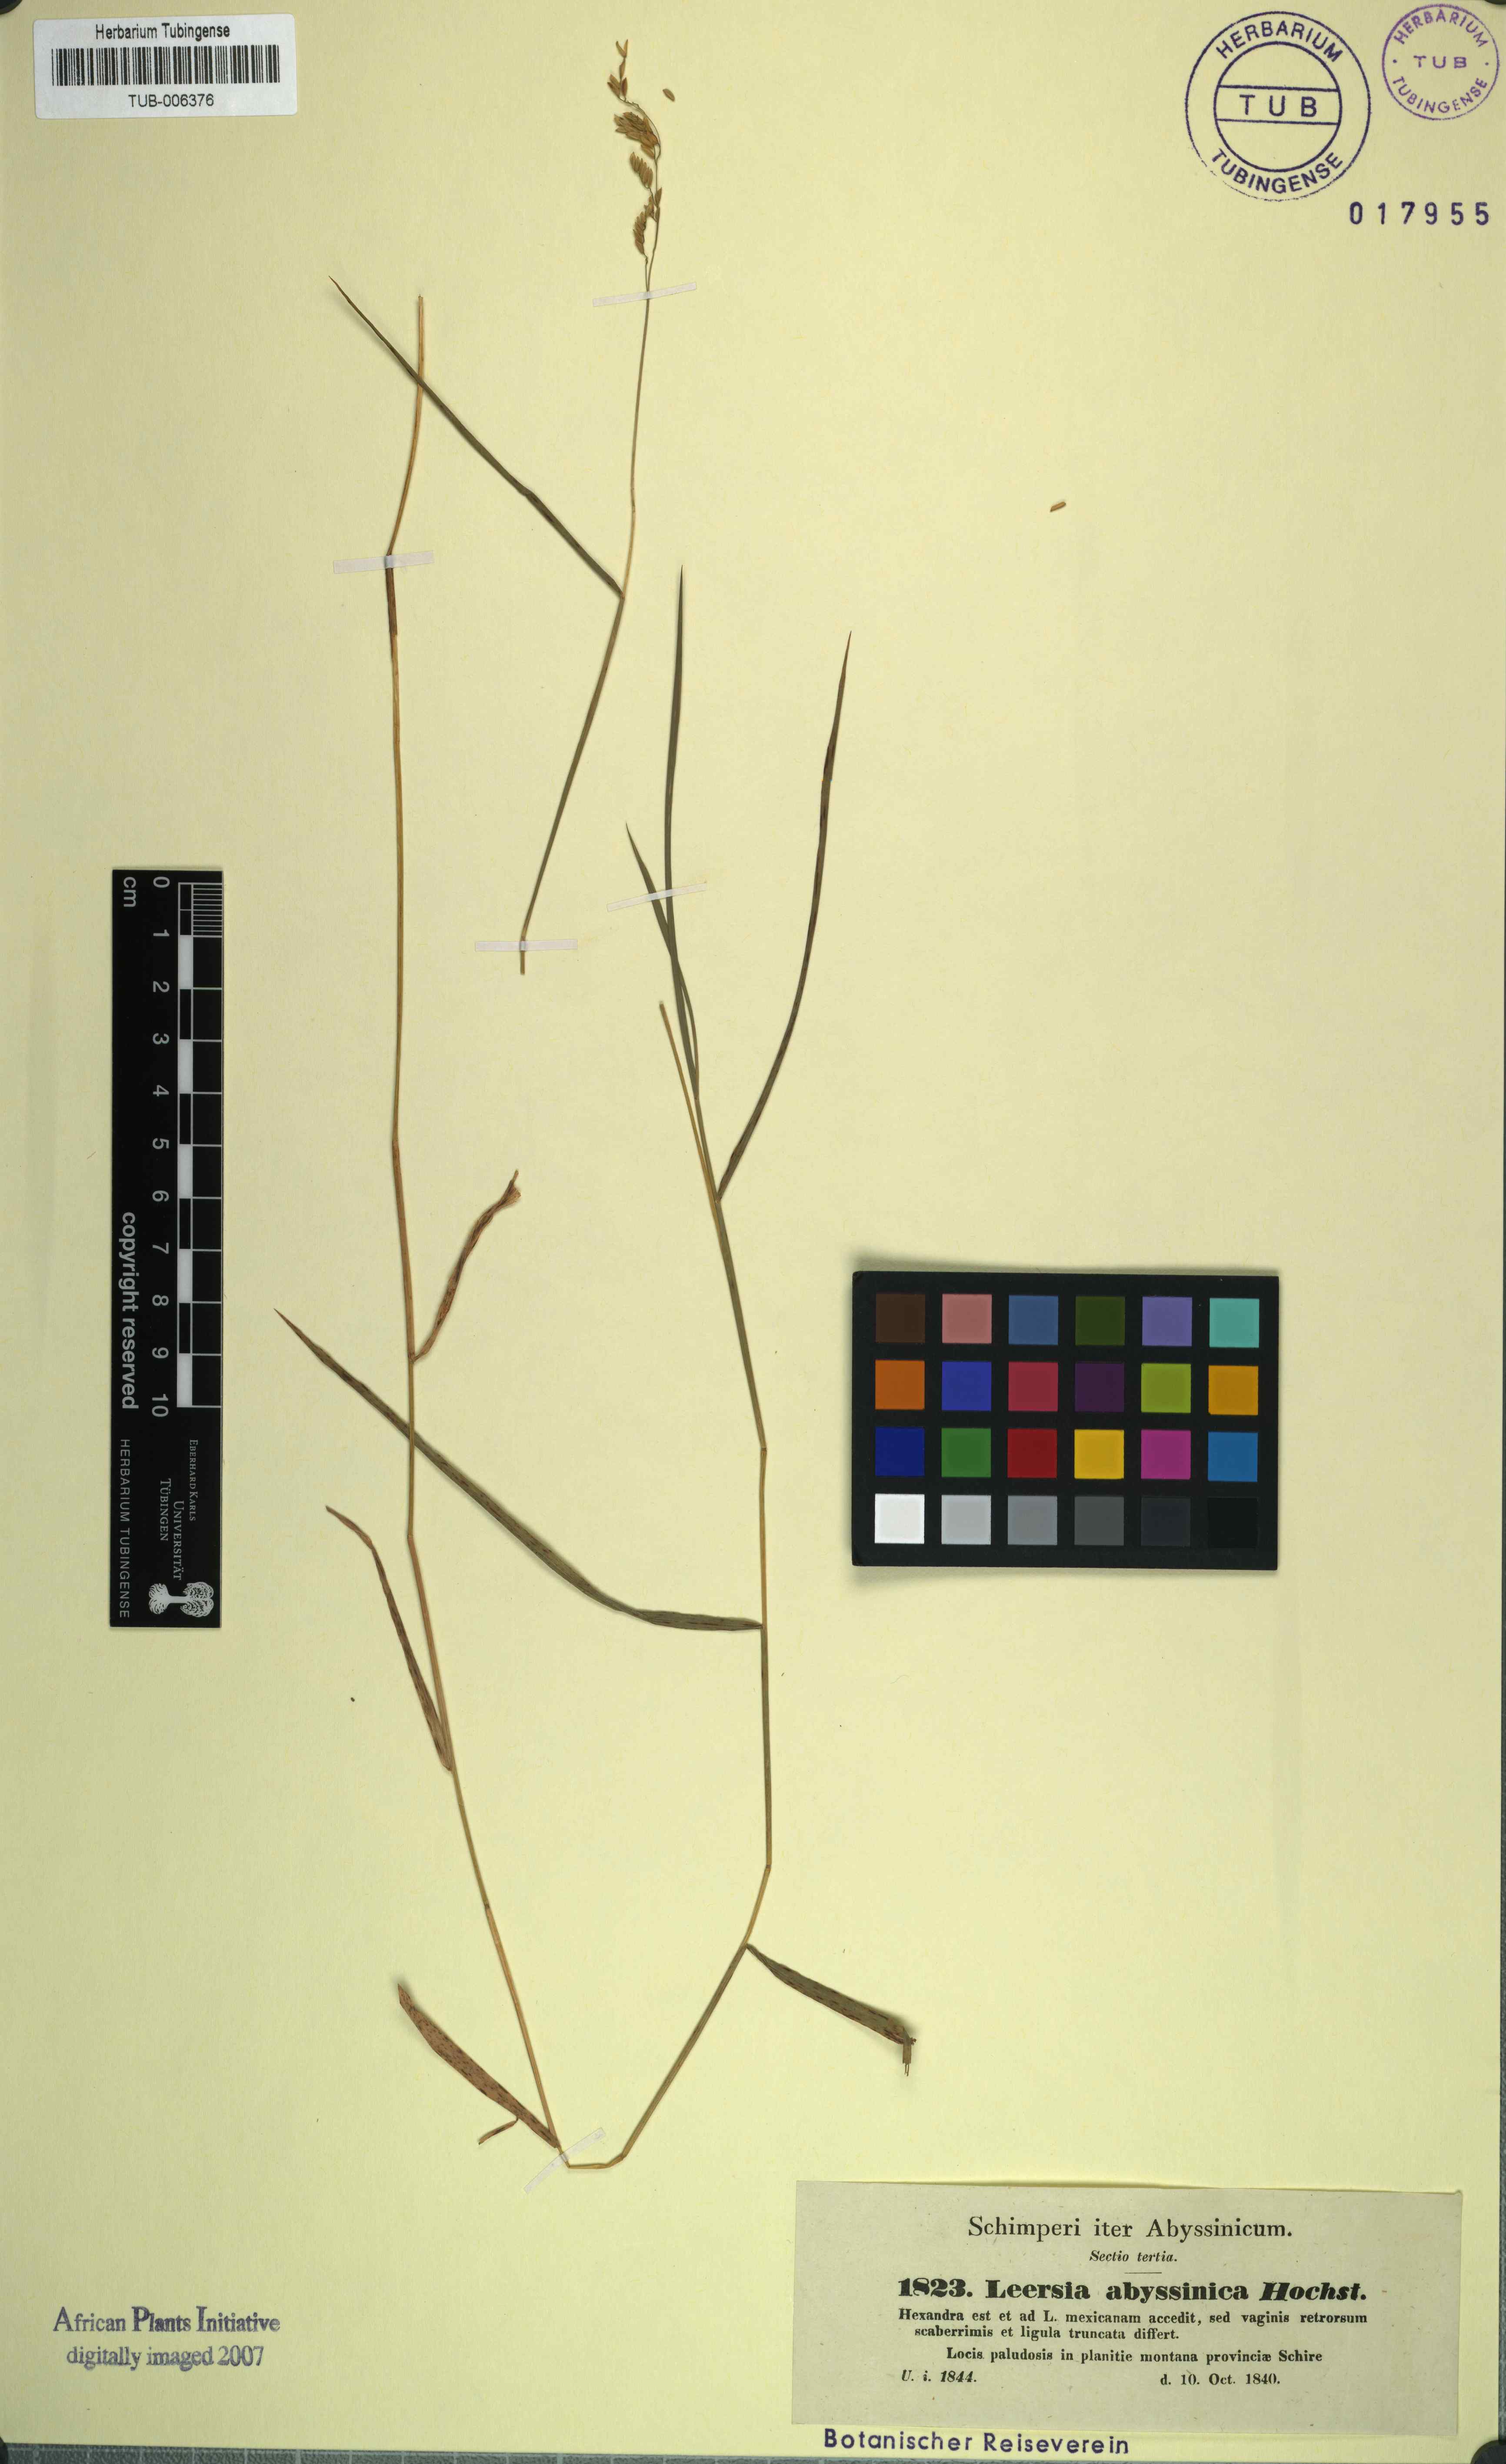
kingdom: Plantae
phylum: Tracheophyta
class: Liliopsida
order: Poales
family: Poaceae
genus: Leersia
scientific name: Leersia hexandra
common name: Southern cut grass
